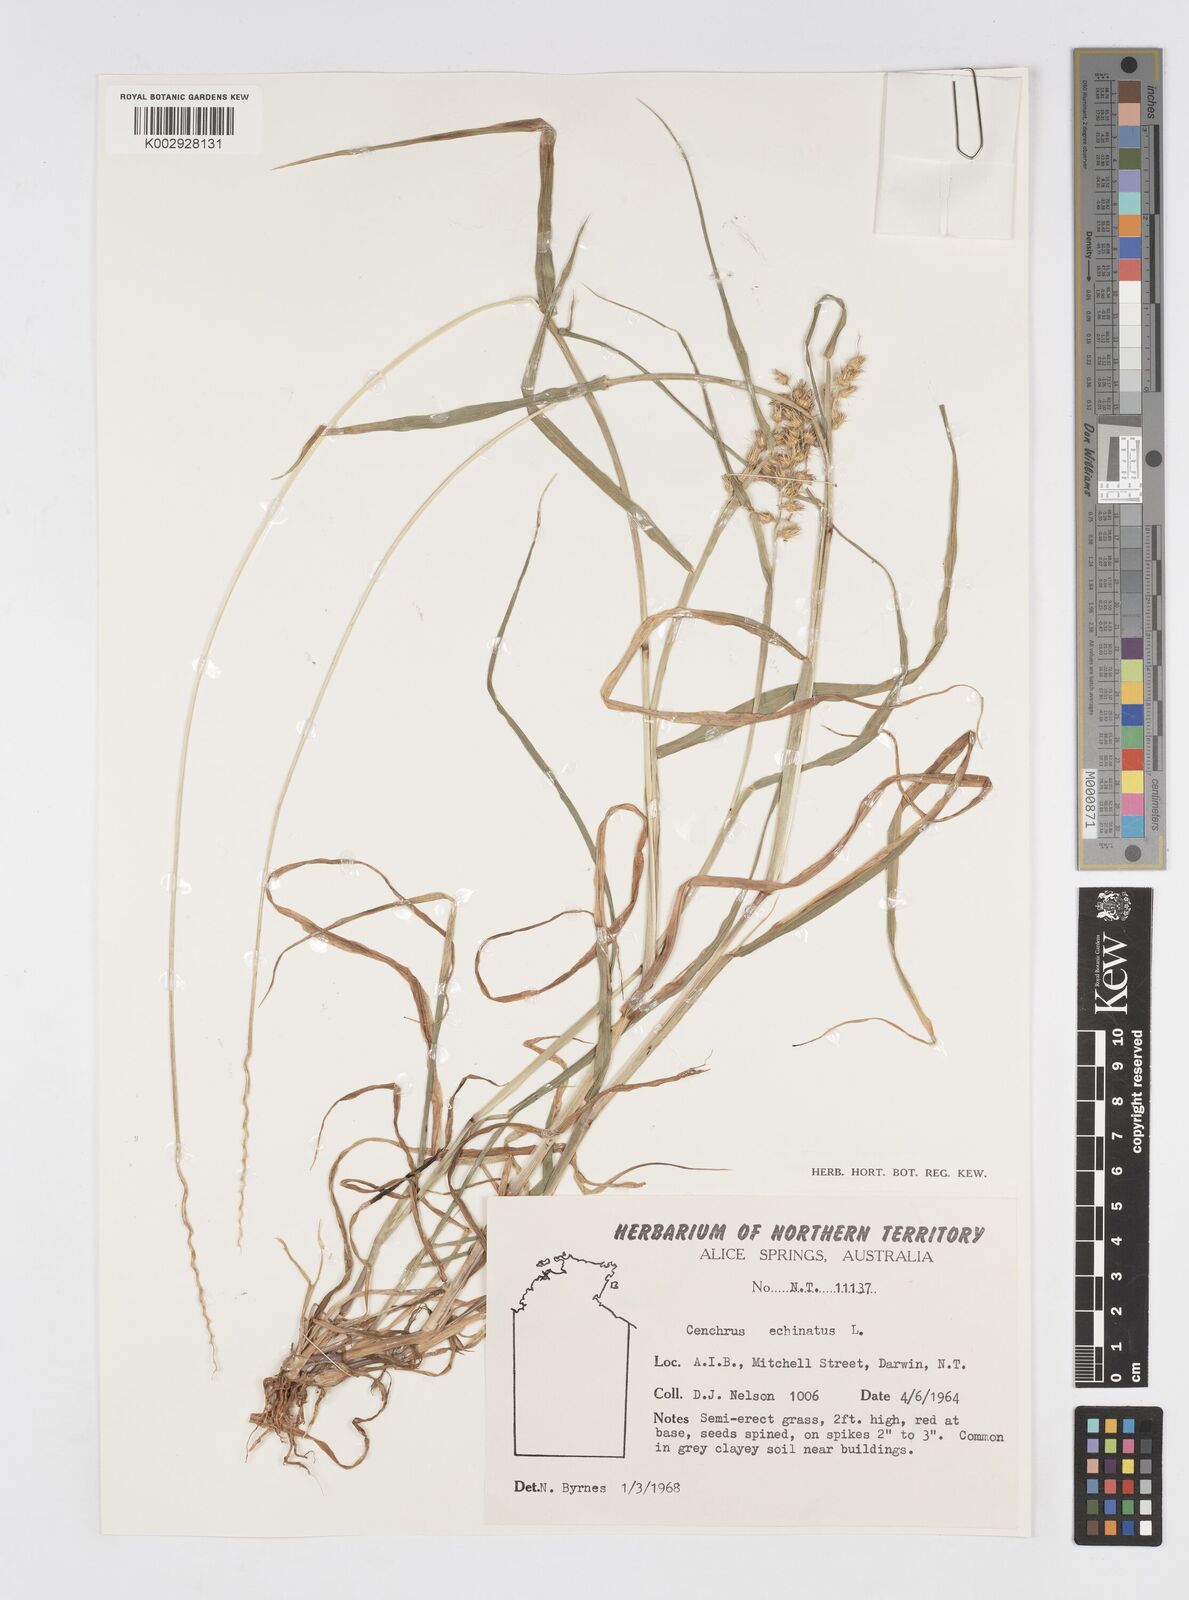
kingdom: Plantae
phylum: Tracheophyta
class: Liliopsida
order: Poales
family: Poaceae
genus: Cenchrus
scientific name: Cenchrus echinatus
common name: Southern sandbur
